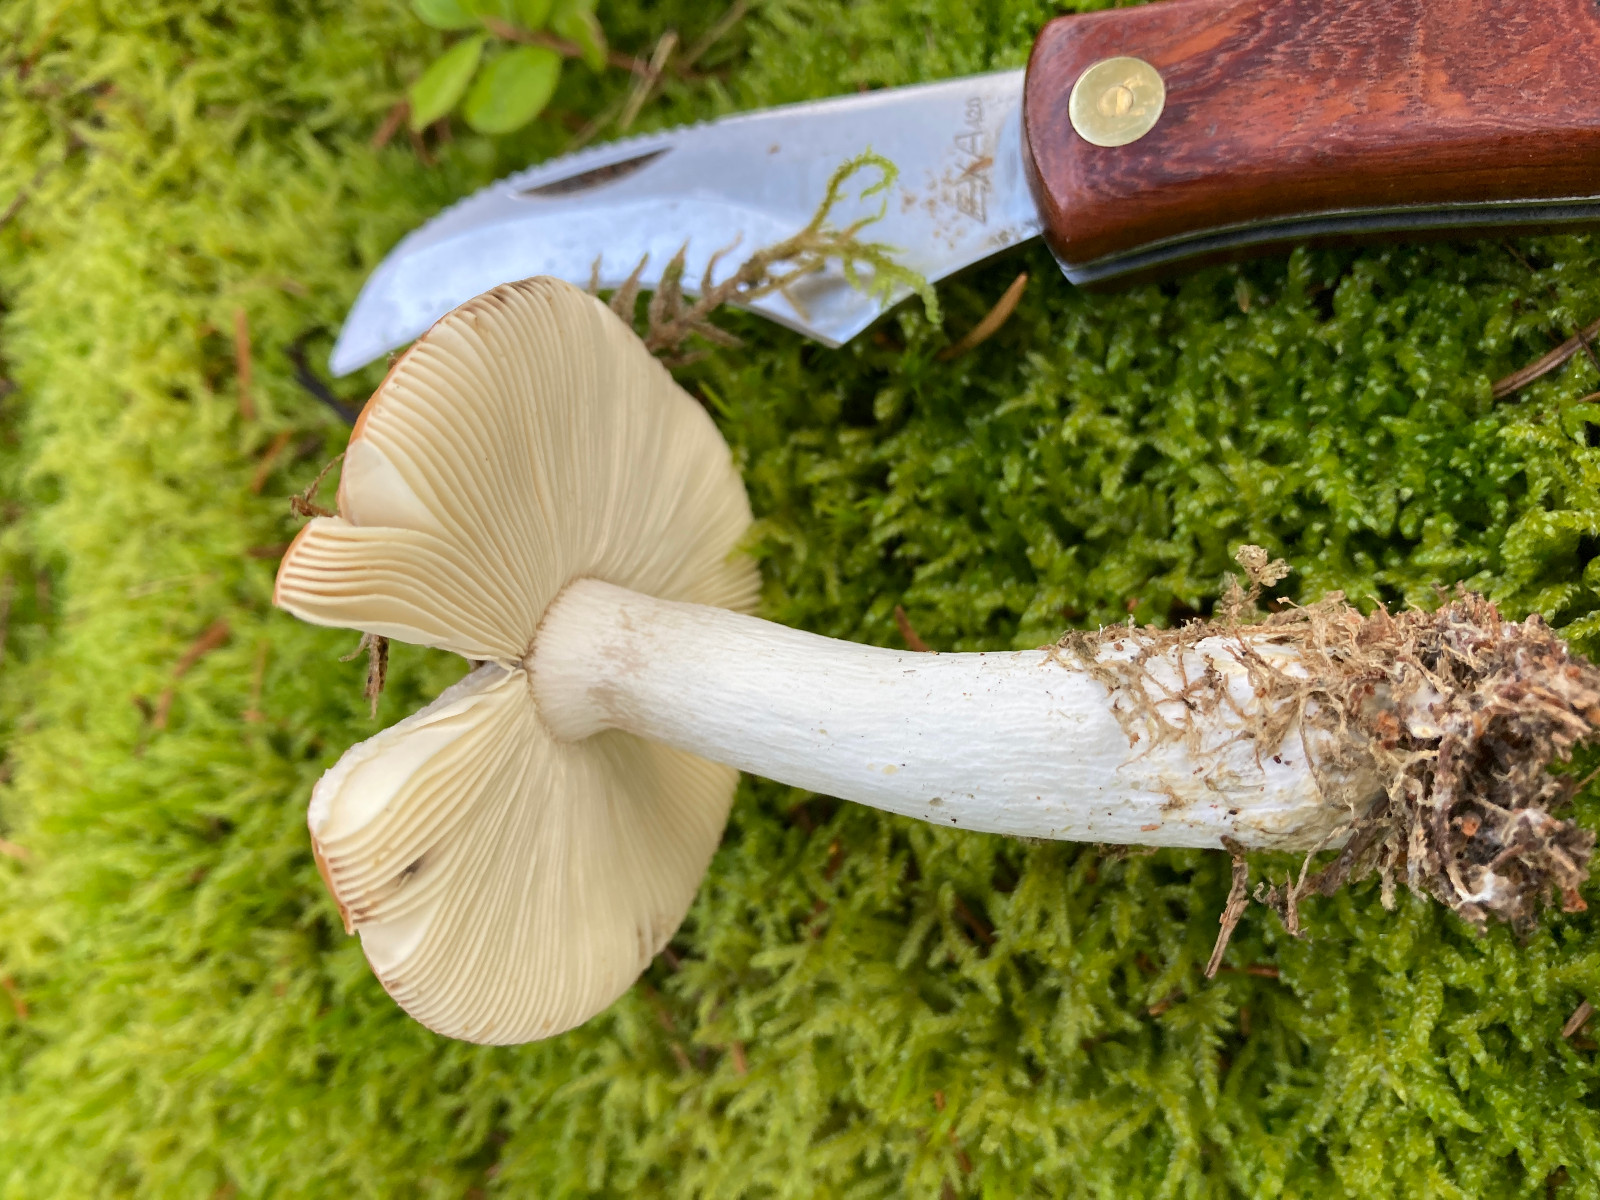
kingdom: Fungi
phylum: Basidiomycota
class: Agaricomycetes
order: Russulales
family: Russulaceae
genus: Russula
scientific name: Russula decolorans
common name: afblegende skørhat
